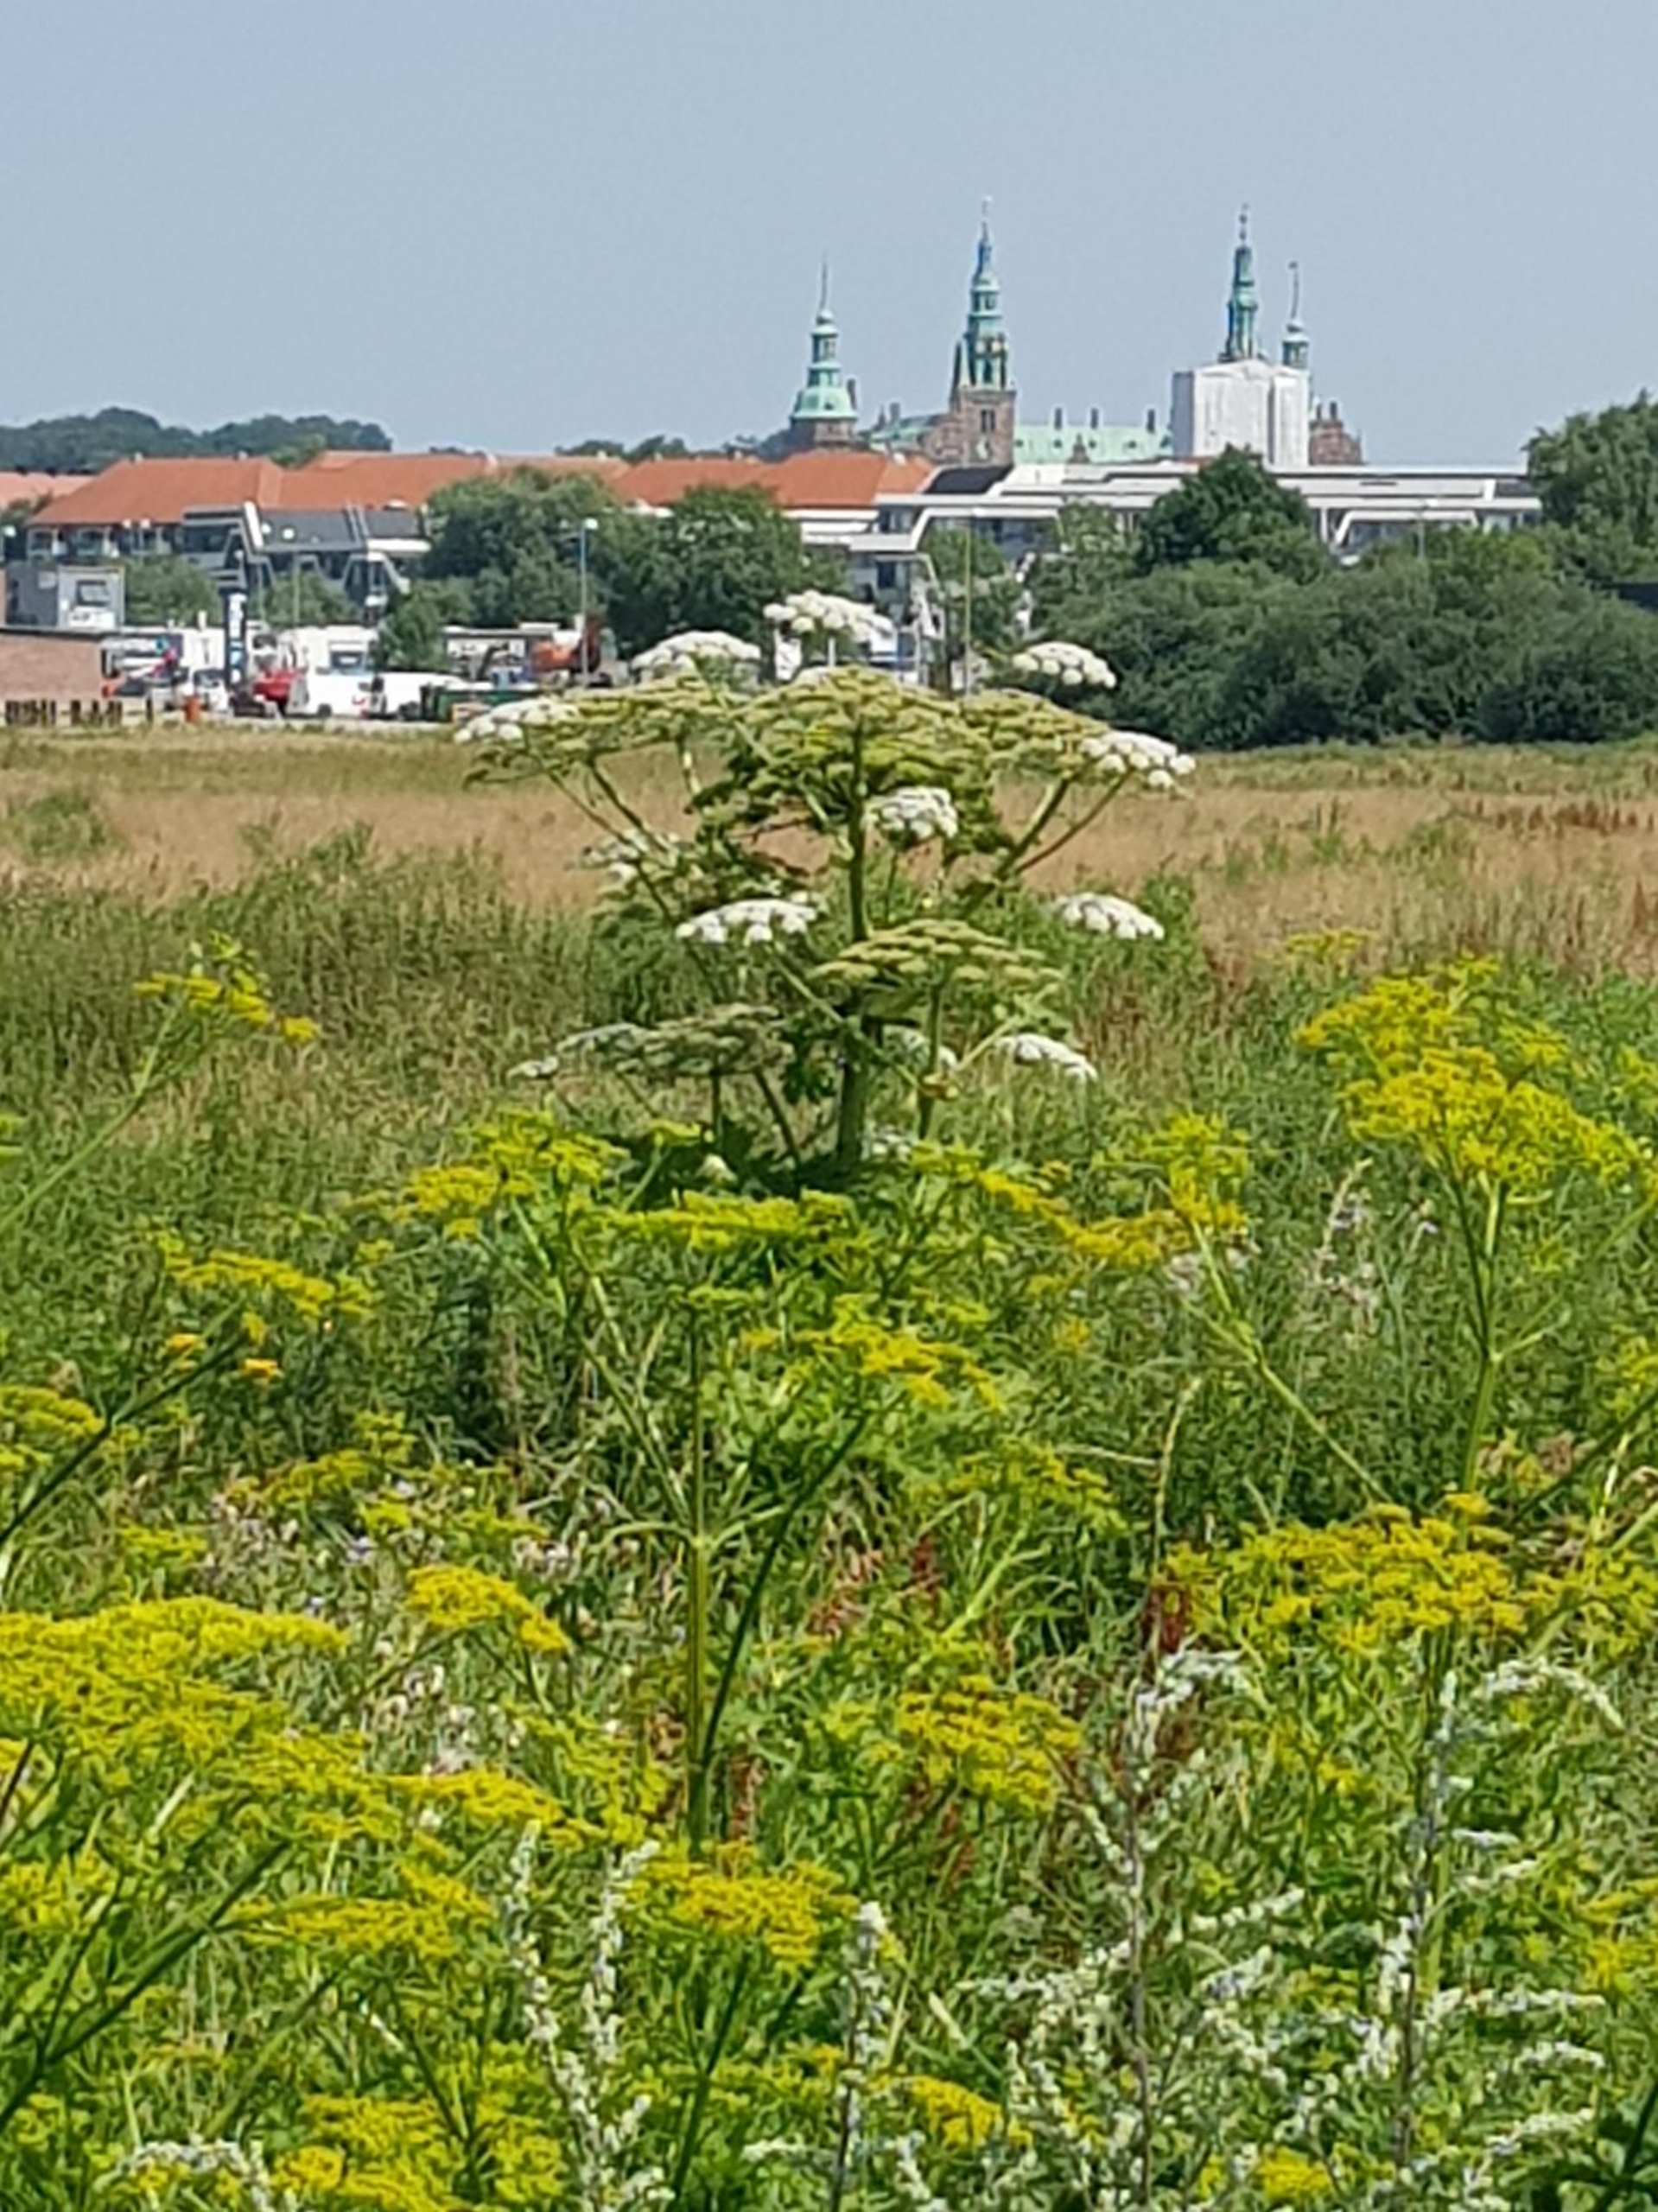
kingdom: Plantae
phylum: Tracheophyta
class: Magnoliopsida
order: Apiales
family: Apiaceae
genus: Heracleum
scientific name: Heracleum mantegazzianum
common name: Kæmpe-bjørneklo
